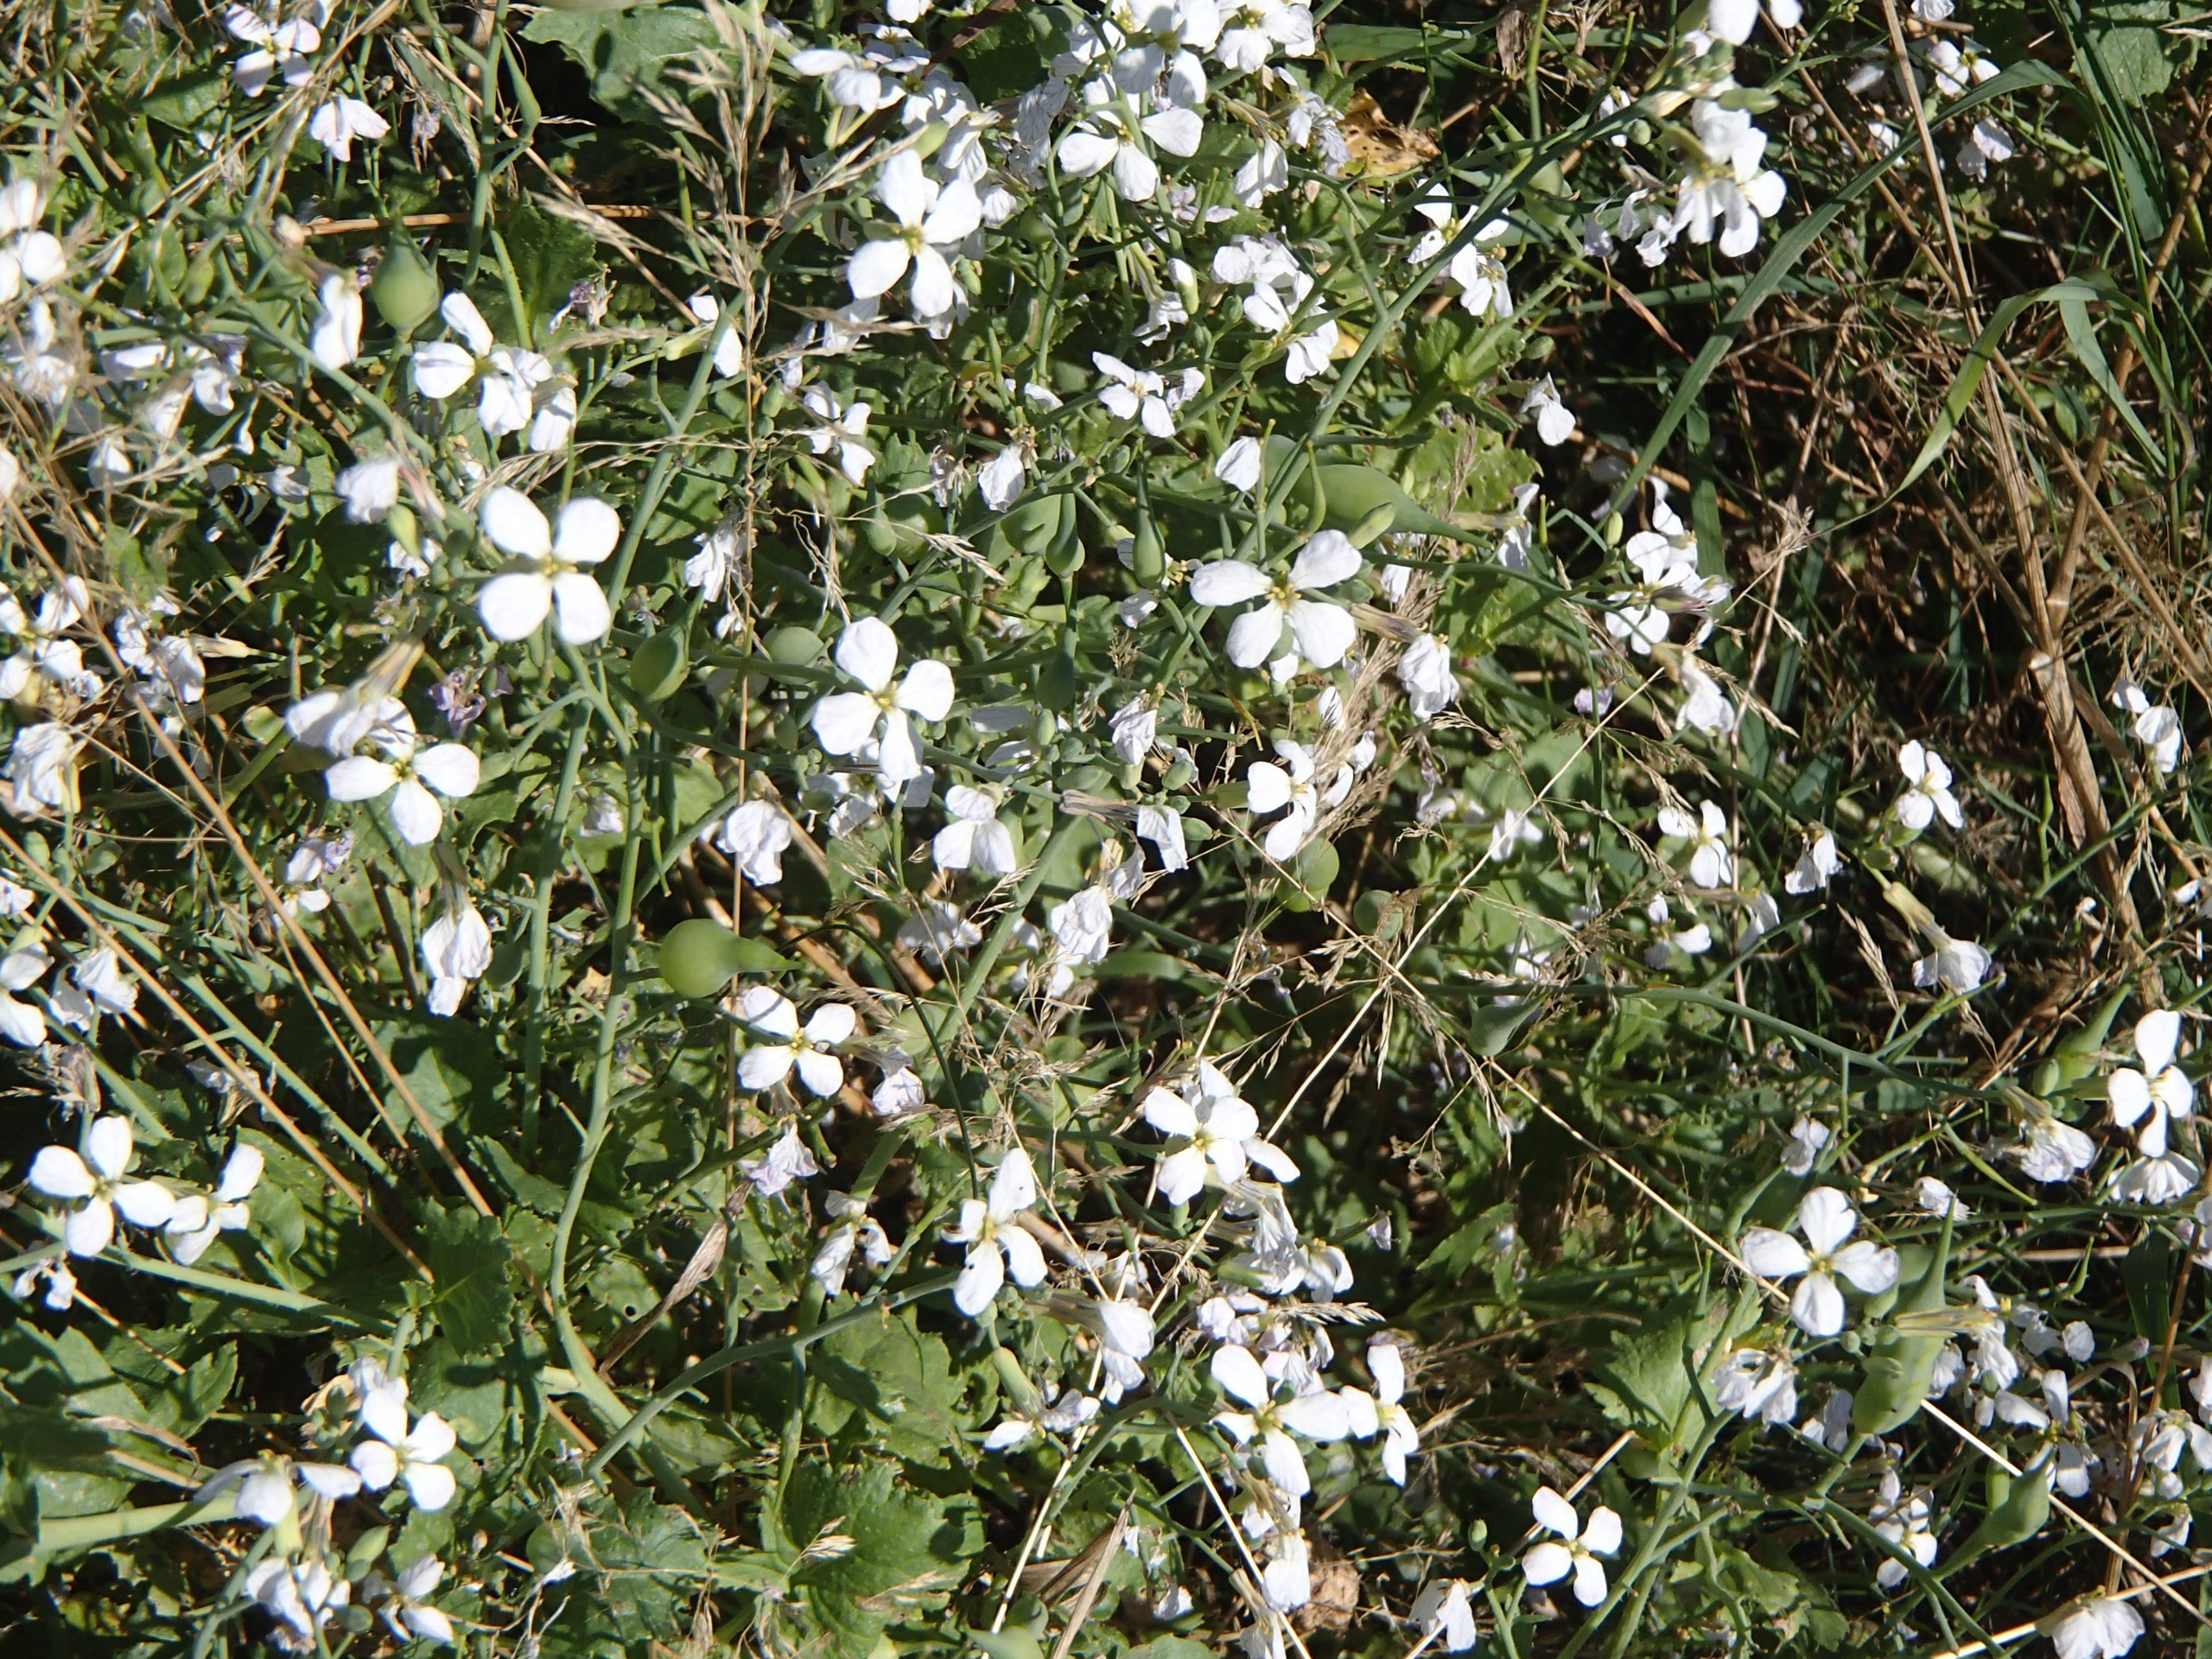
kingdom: Plantae
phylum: Tracheophyta
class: Magnoliopsida
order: Brassicales
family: Brassicaceae
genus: Raphanus
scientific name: Raphanus sativus
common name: Olie-ræddike
